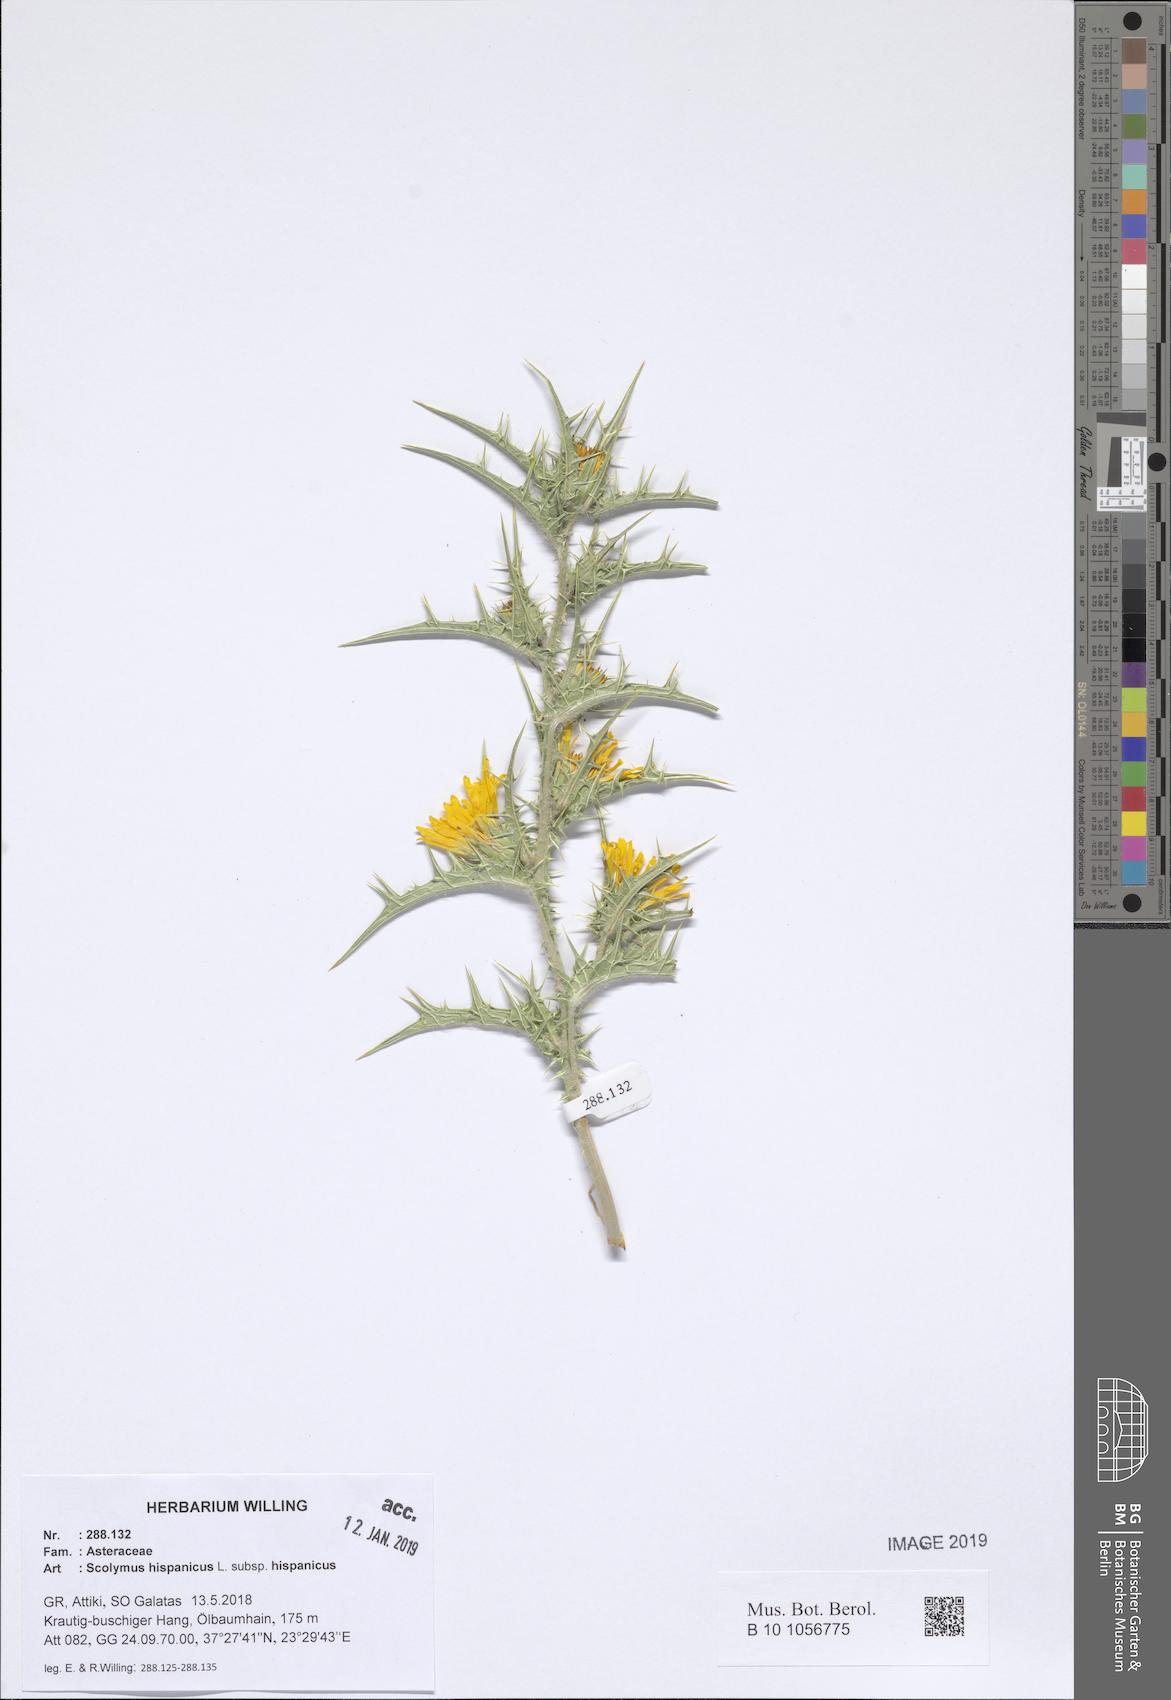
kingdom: Plantae
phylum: Tracheophyta
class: Magnoliopsida
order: Asterales
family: Asteraceae
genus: Scolymus
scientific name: Scolymus hispanicus
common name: Golden thistle
